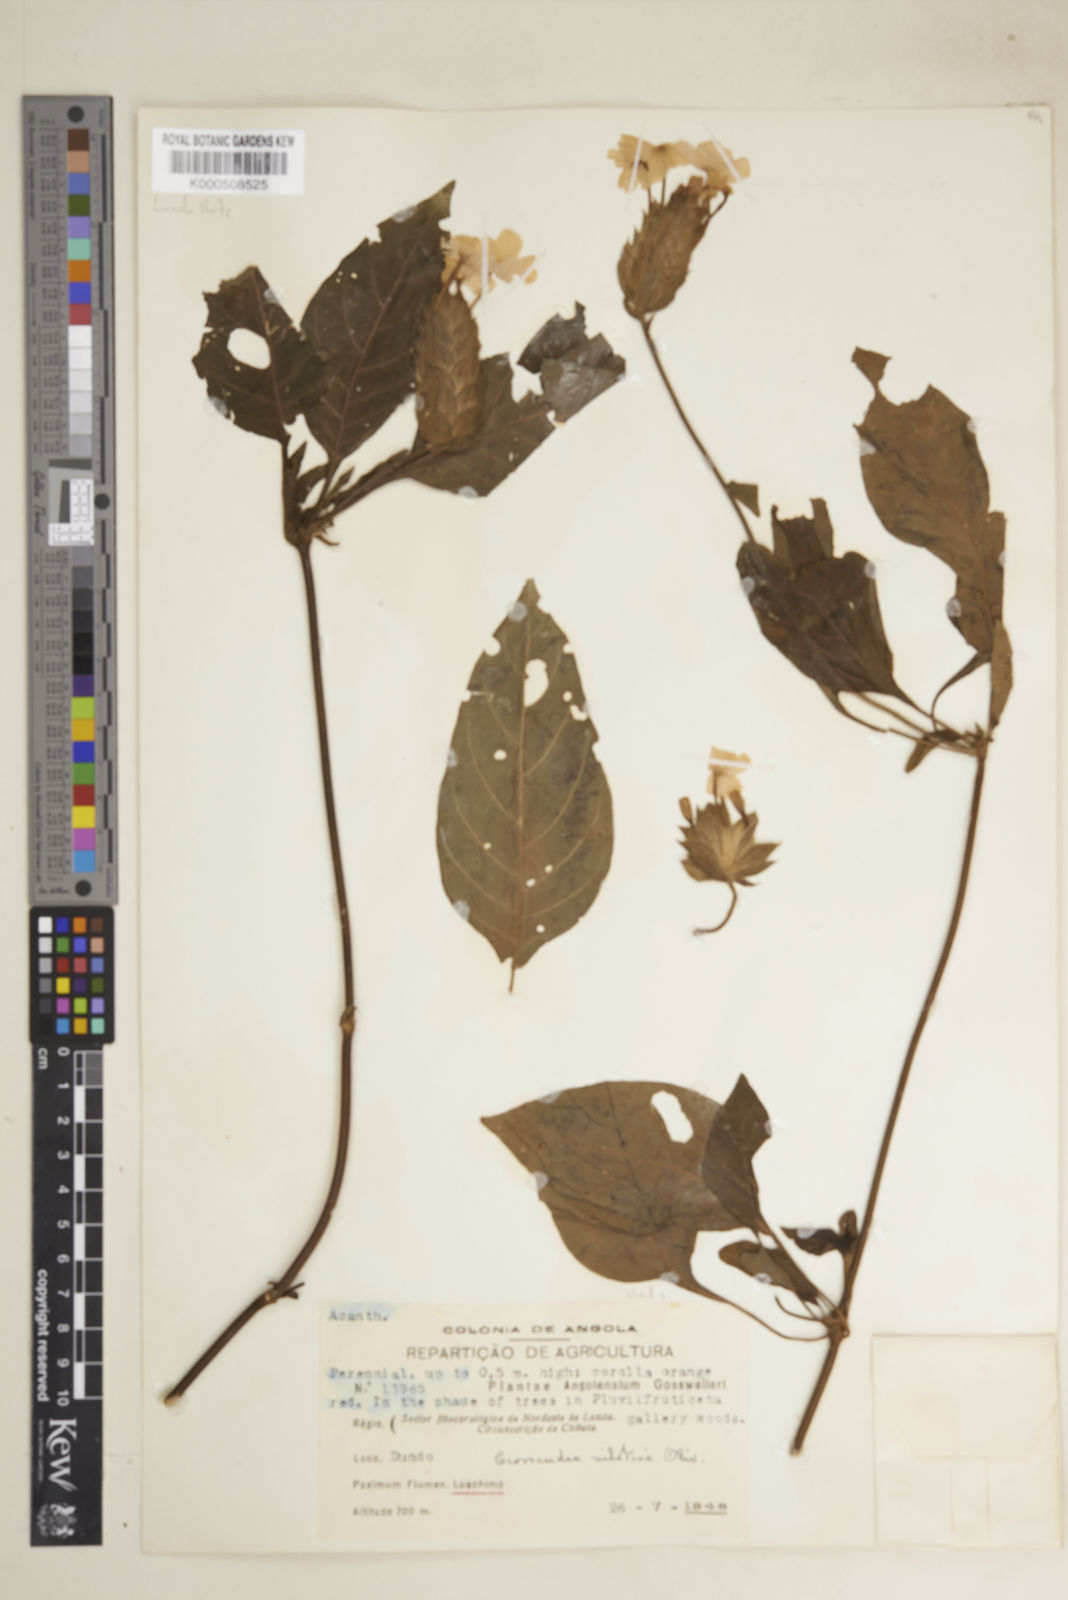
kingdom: Plantae
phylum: Tracheophyta
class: Magnoliopsida
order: Lamiales
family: Acanthaceae
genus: Crossandra
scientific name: Crossandra nilotica
